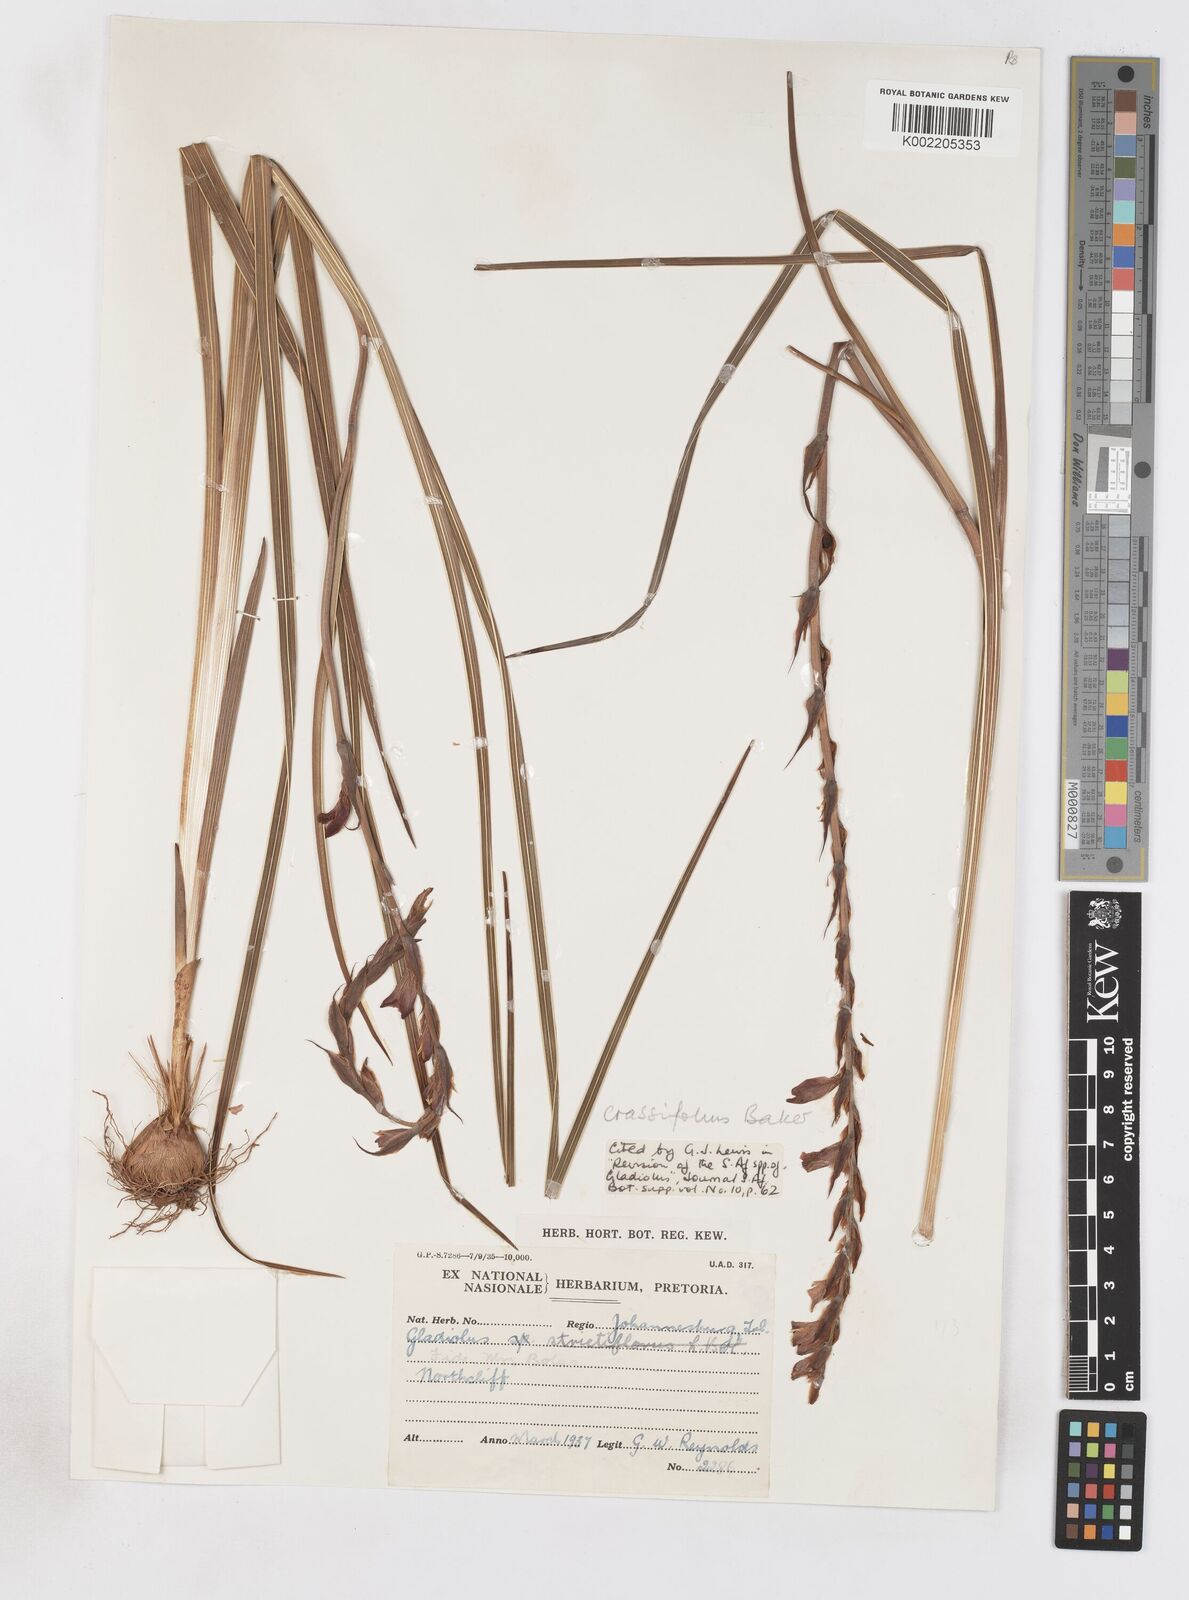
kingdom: Plantae
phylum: Tracheophyta
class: Liliopsida
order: Asparagales
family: Iridaceae
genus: Gladiolus
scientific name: Gladiolus crassifolius
